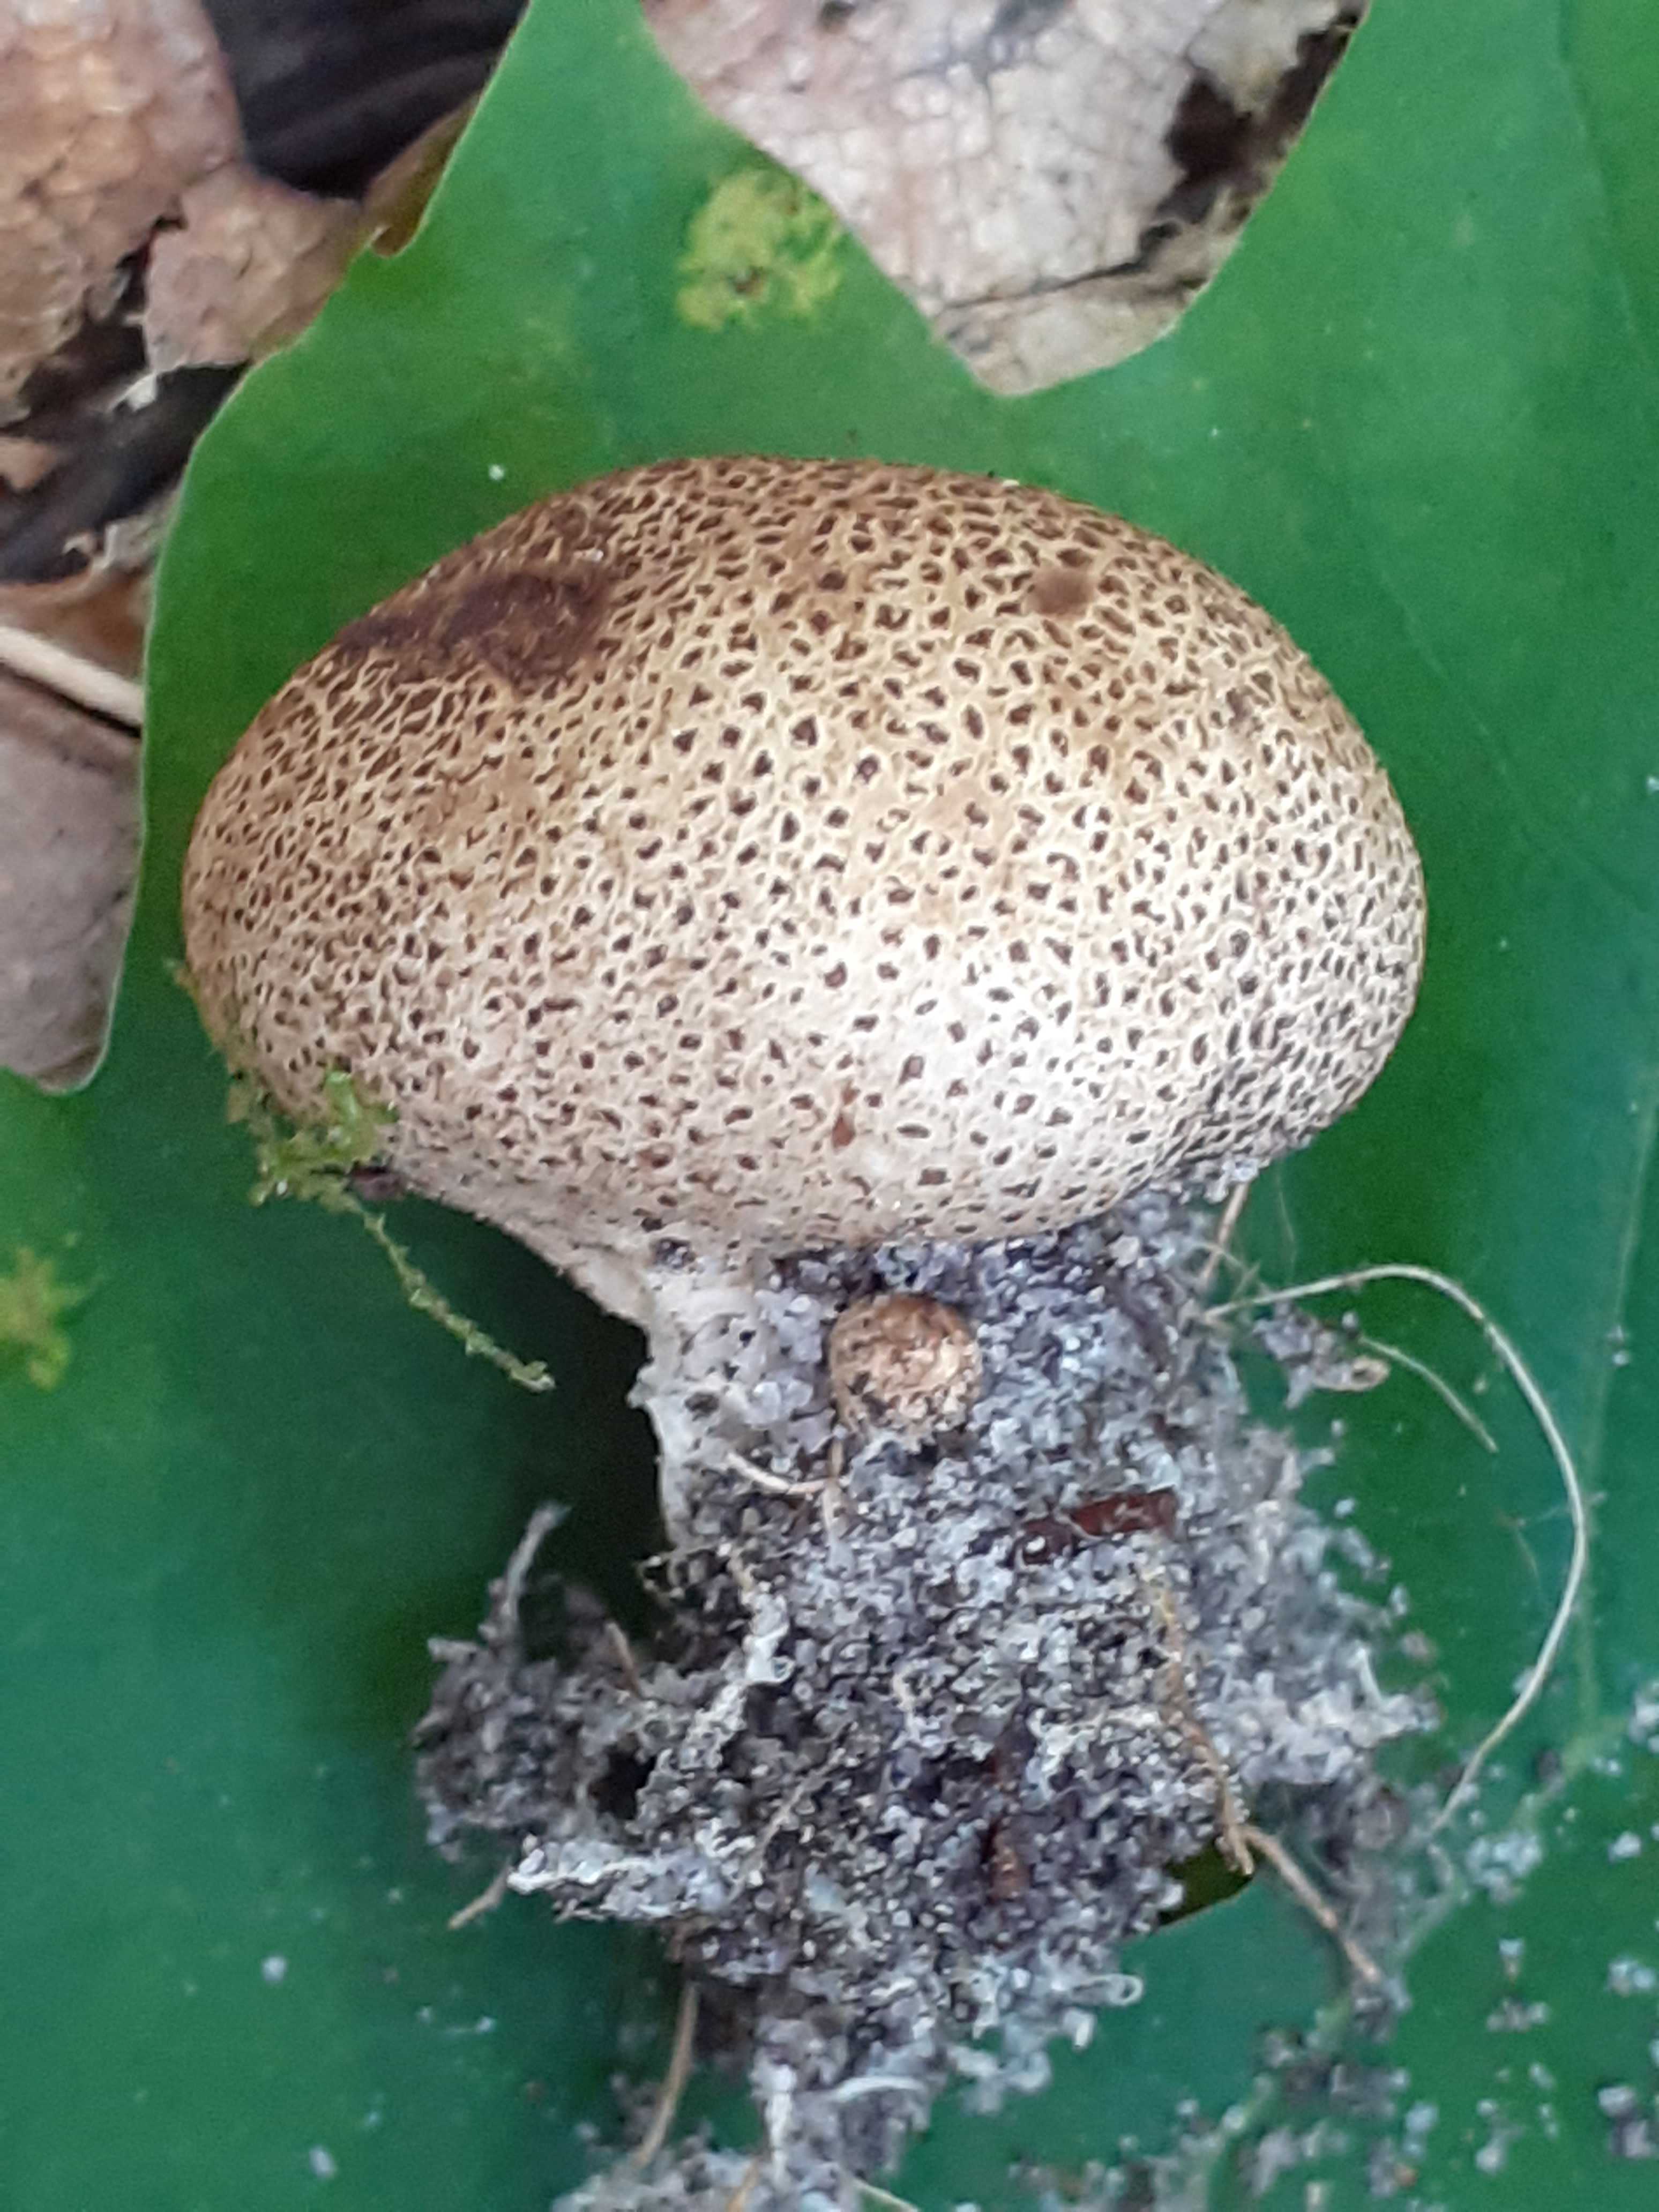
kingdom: Fungi
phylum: Basidiomycota
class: Agaricomycetes
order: Boletales
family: Sclerodermataceae
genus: Scleroderma
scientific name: Scleroderma areolatum
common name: plettet bruskbold
